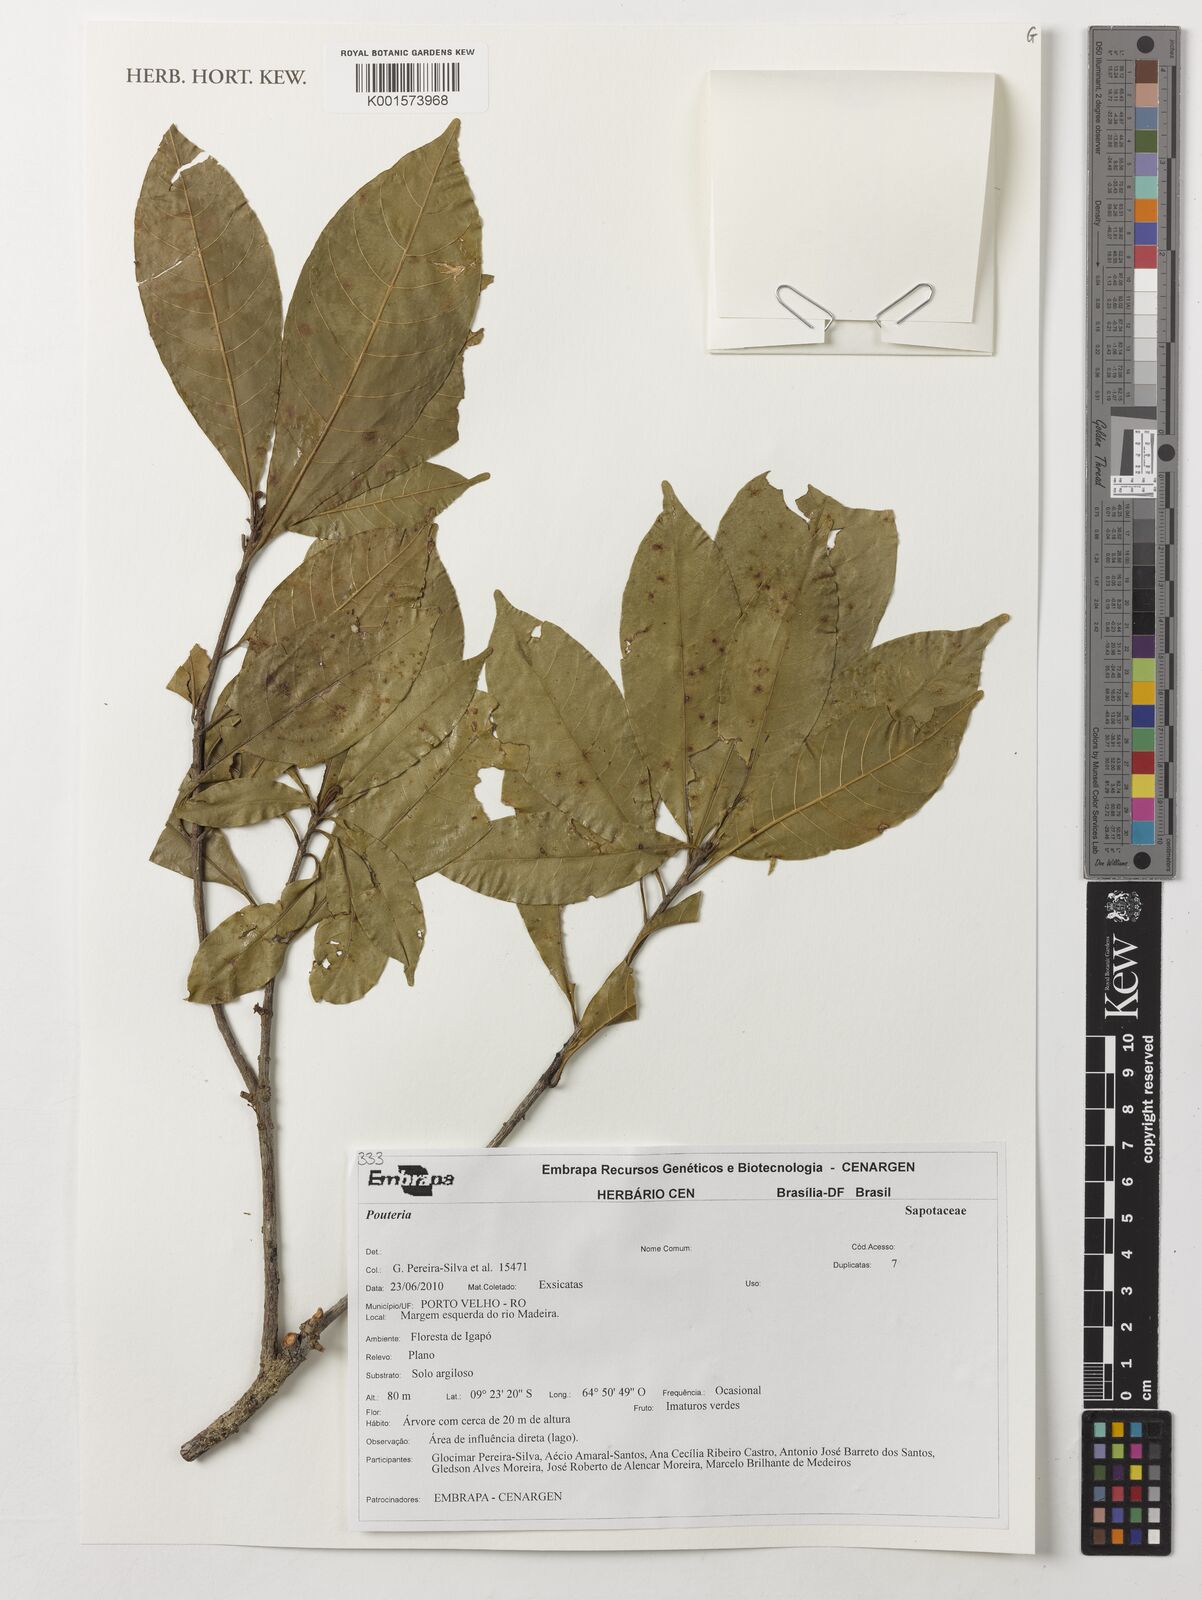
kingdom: Plantae
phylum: Tracheophyta
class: Magnoliopsida
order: Ericales
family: Sapotaceae
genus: Pouteria
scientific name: Pouteria
